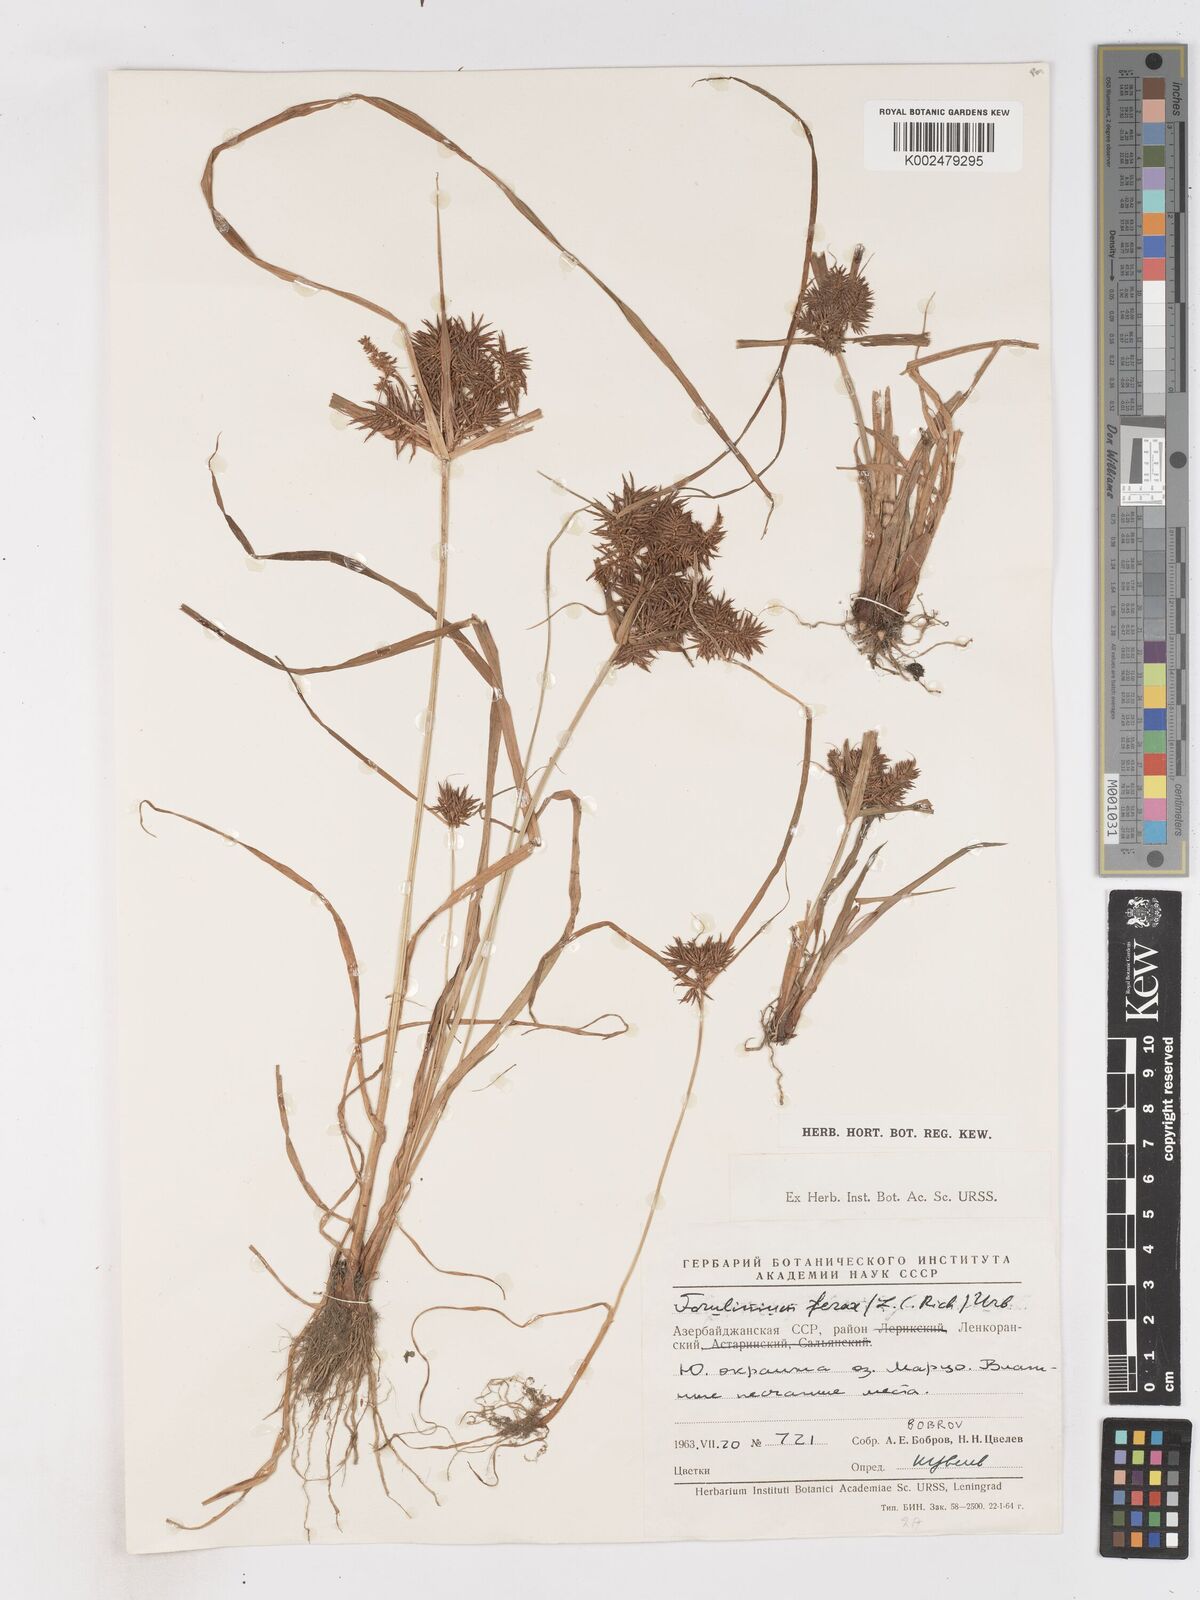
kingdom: Plantae
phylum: Tracheophyta
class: Liliopsida
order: Poales
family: Cyperaceae
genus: Cyperus
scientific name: Cyperus odoratus
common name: Fragrant flatsedge
